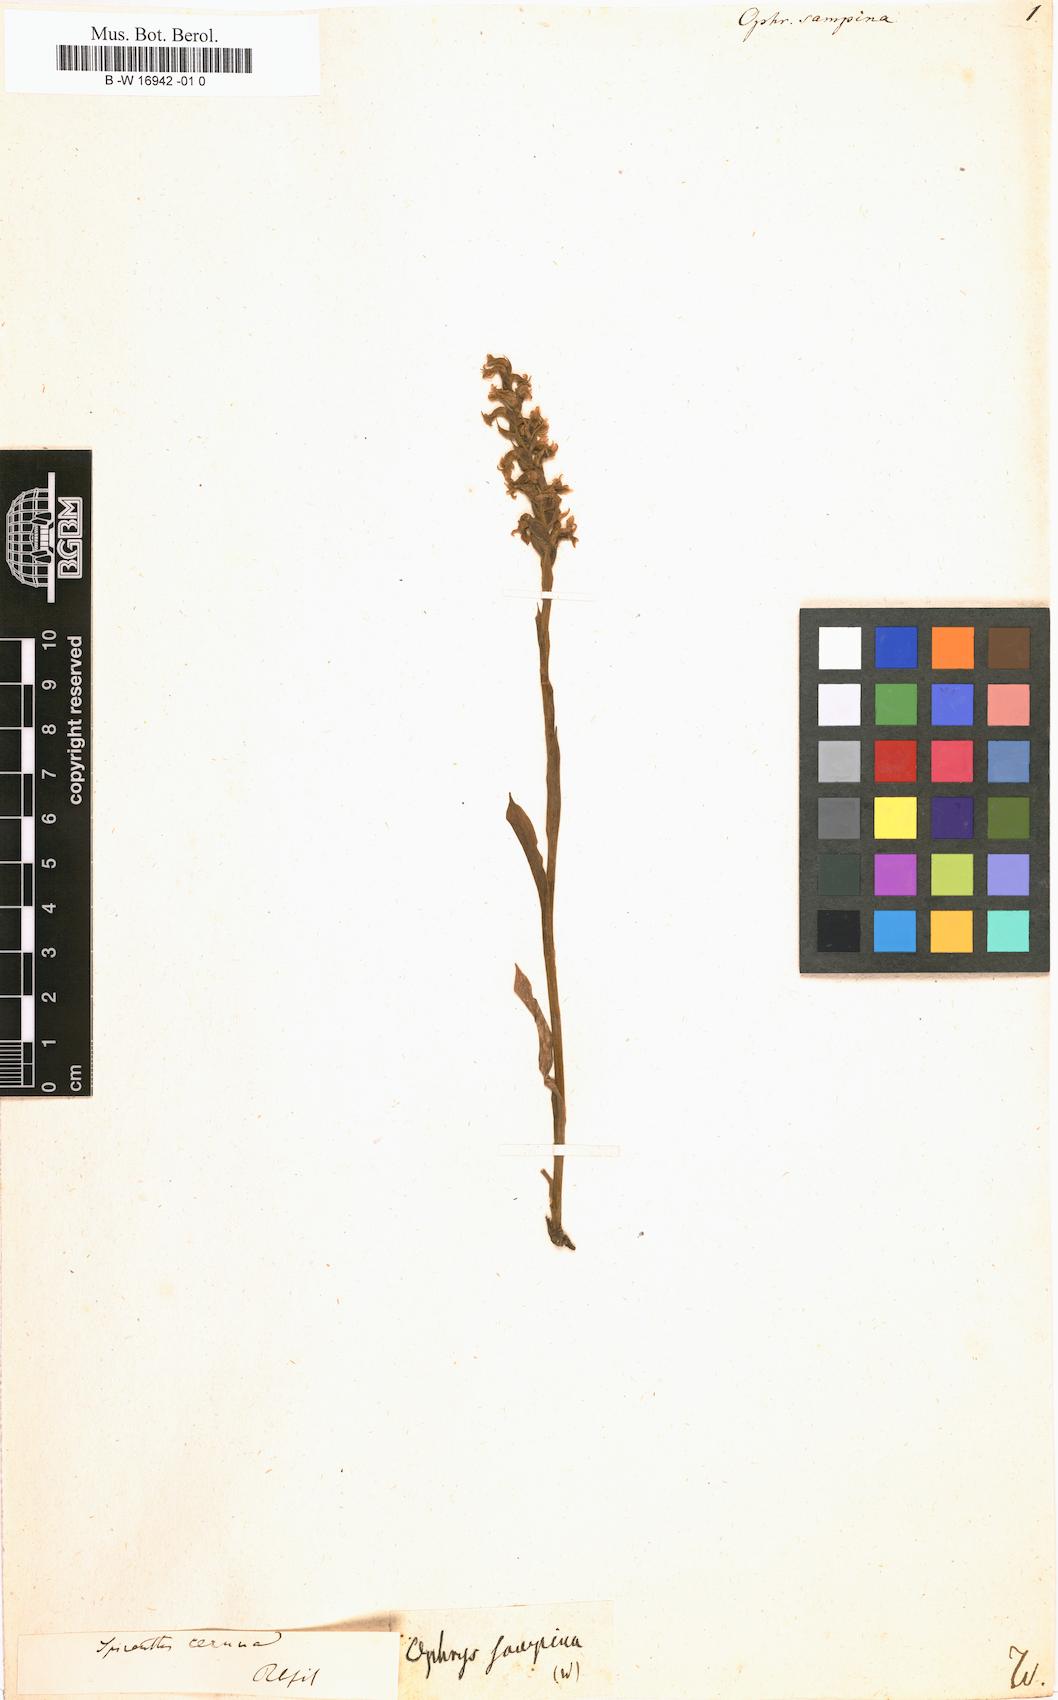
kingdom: Plantae
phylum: Tracheophyta
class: Liliopsida
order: Asparagales
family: Orchidaceae
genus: Ophrys
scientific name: Ophrys holosericea
